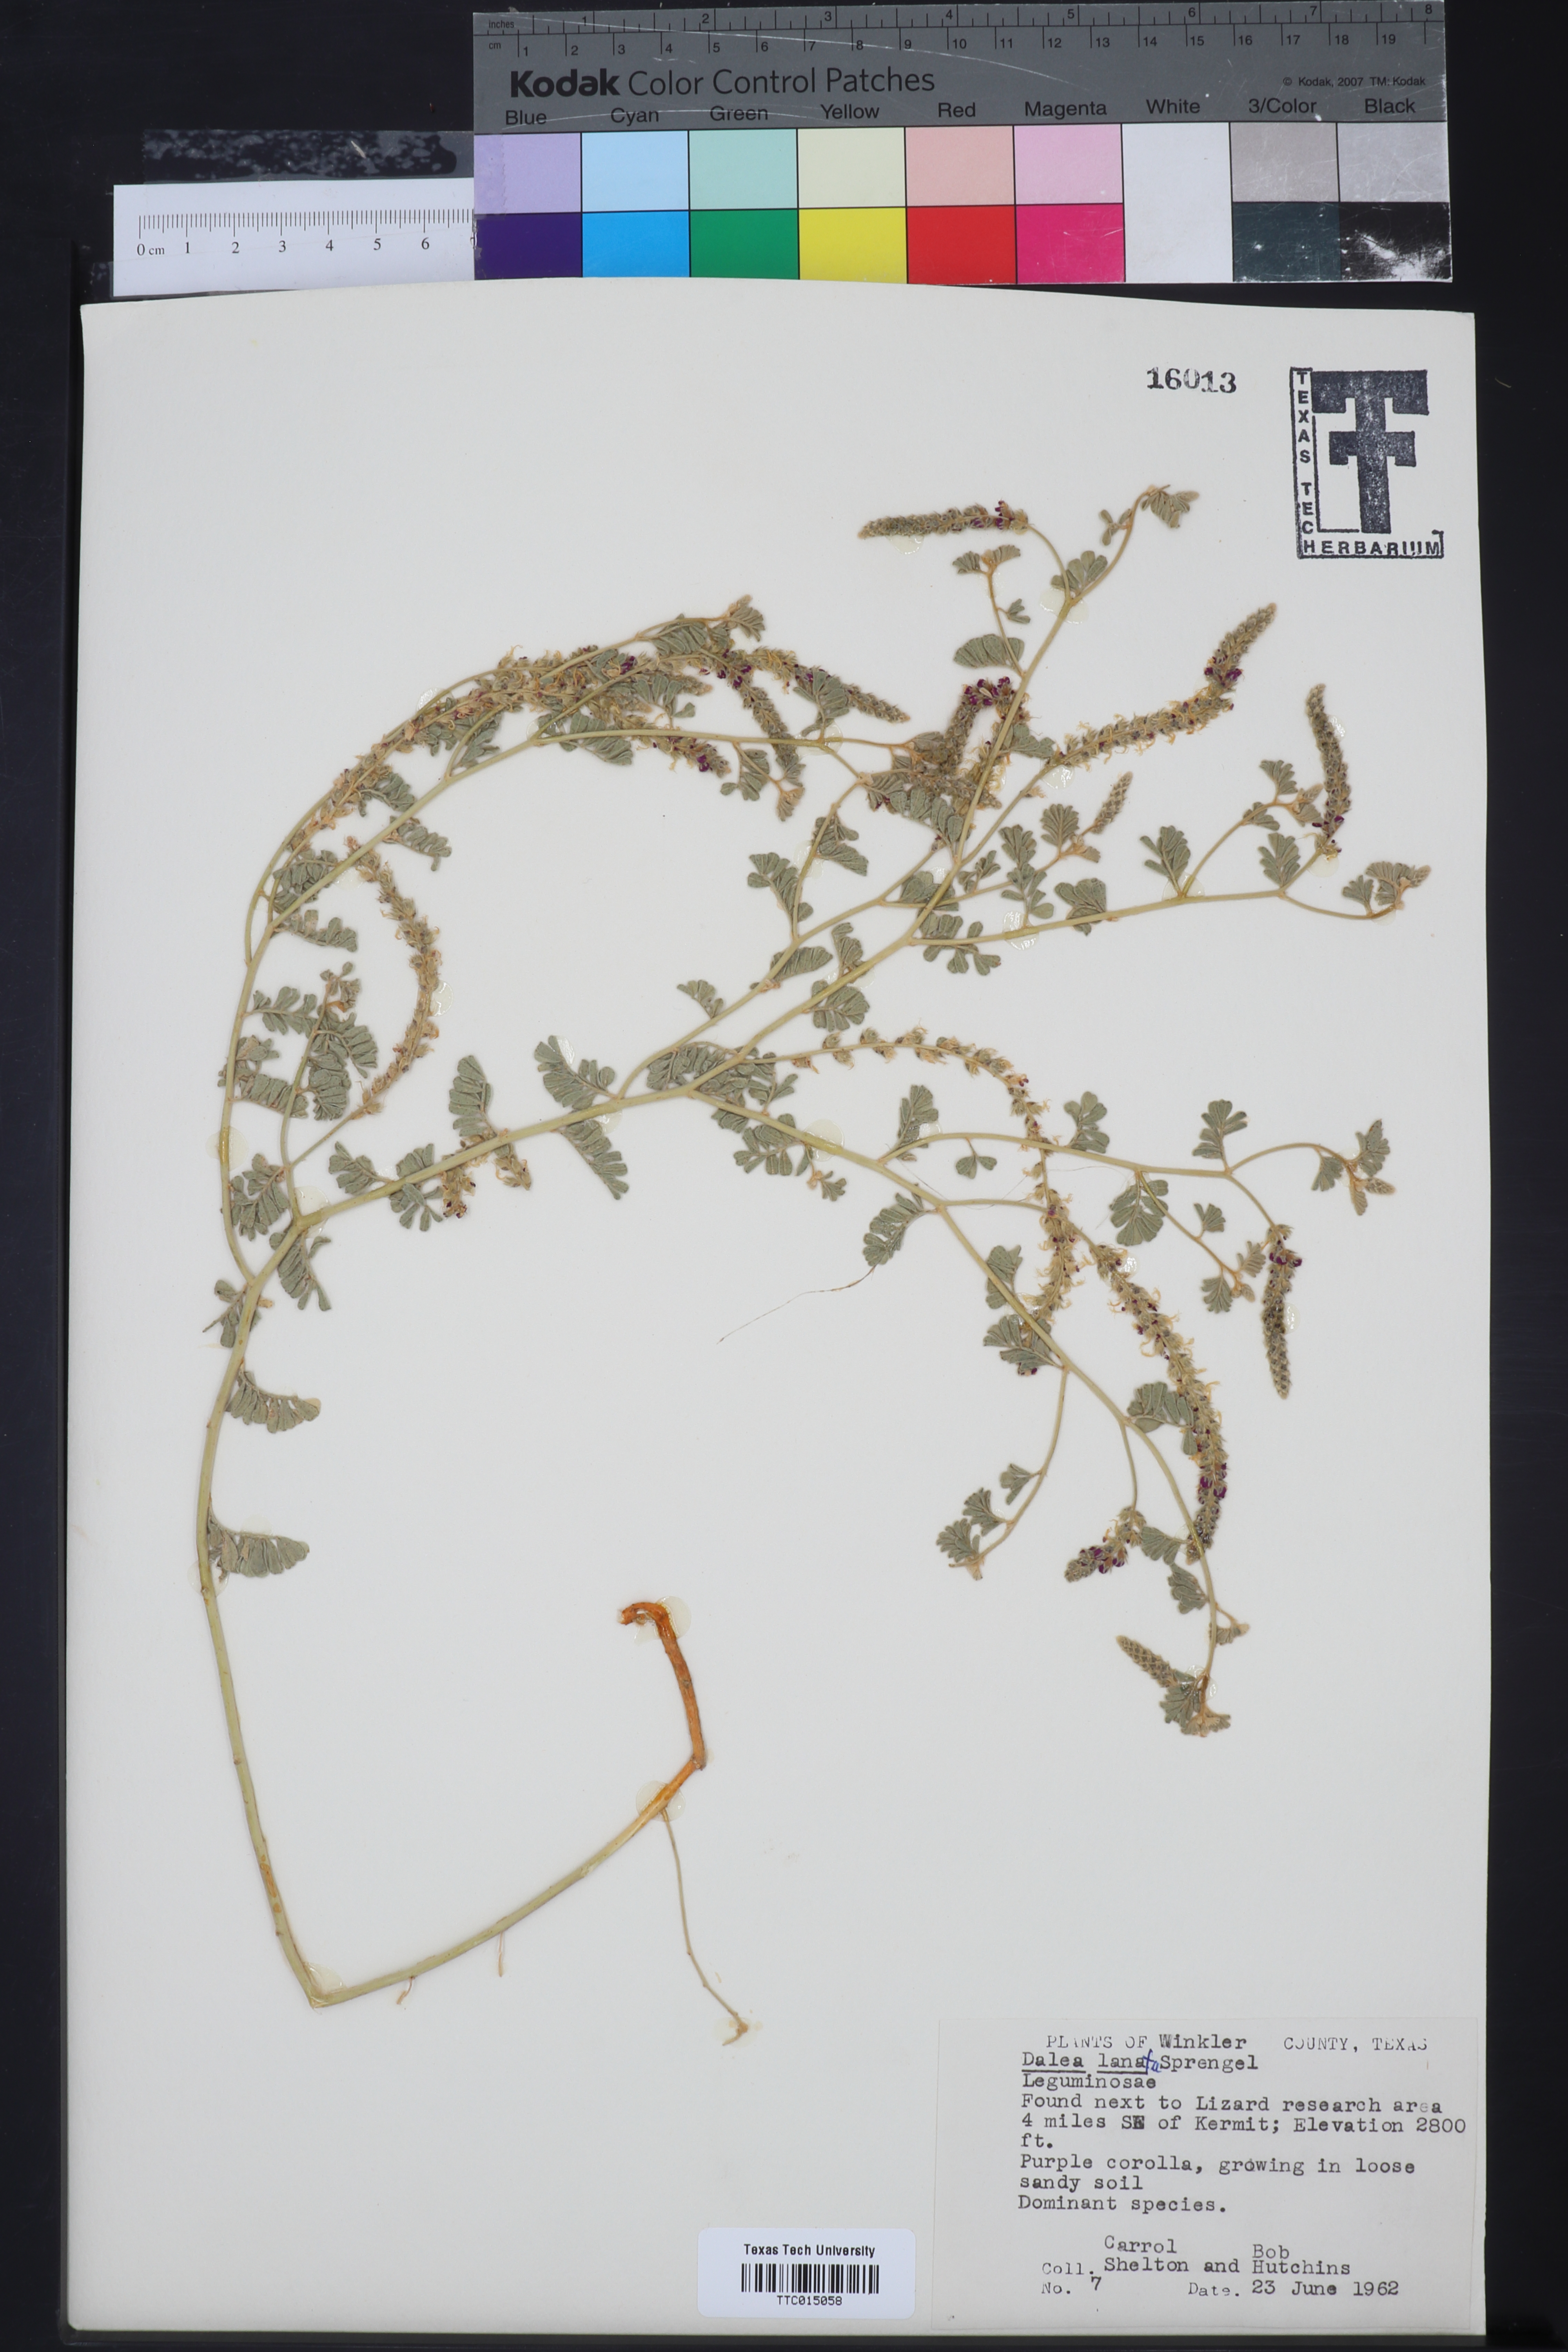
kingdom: Plantae
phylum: Tracheophyta
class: Magnoliopsida
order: Fabales
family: Fabaceae
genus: Dalea
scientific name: Dalea lanata
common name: Woolly dalea
